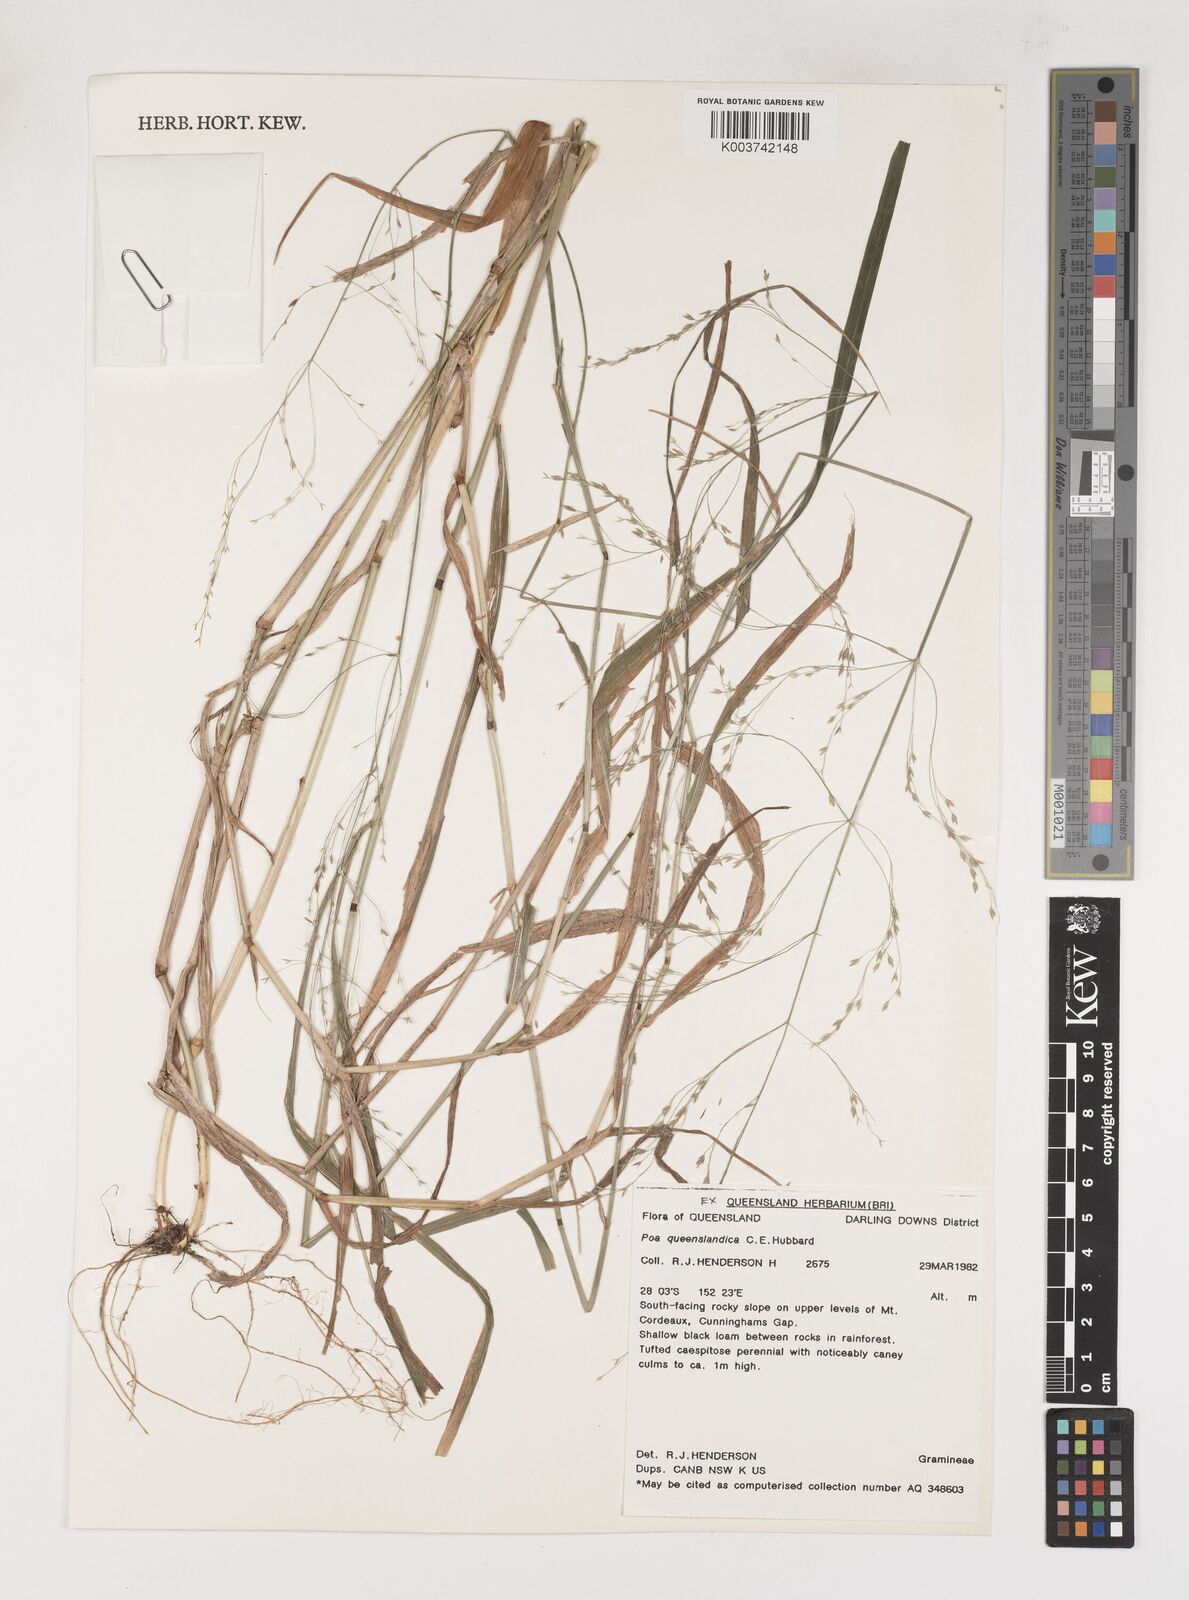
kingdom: Plantae
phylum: Tracheophyta
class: Liliopsida
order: Poales
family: Poaceae
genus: Sylvipoa
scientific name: Sylvipoa queenslandica
